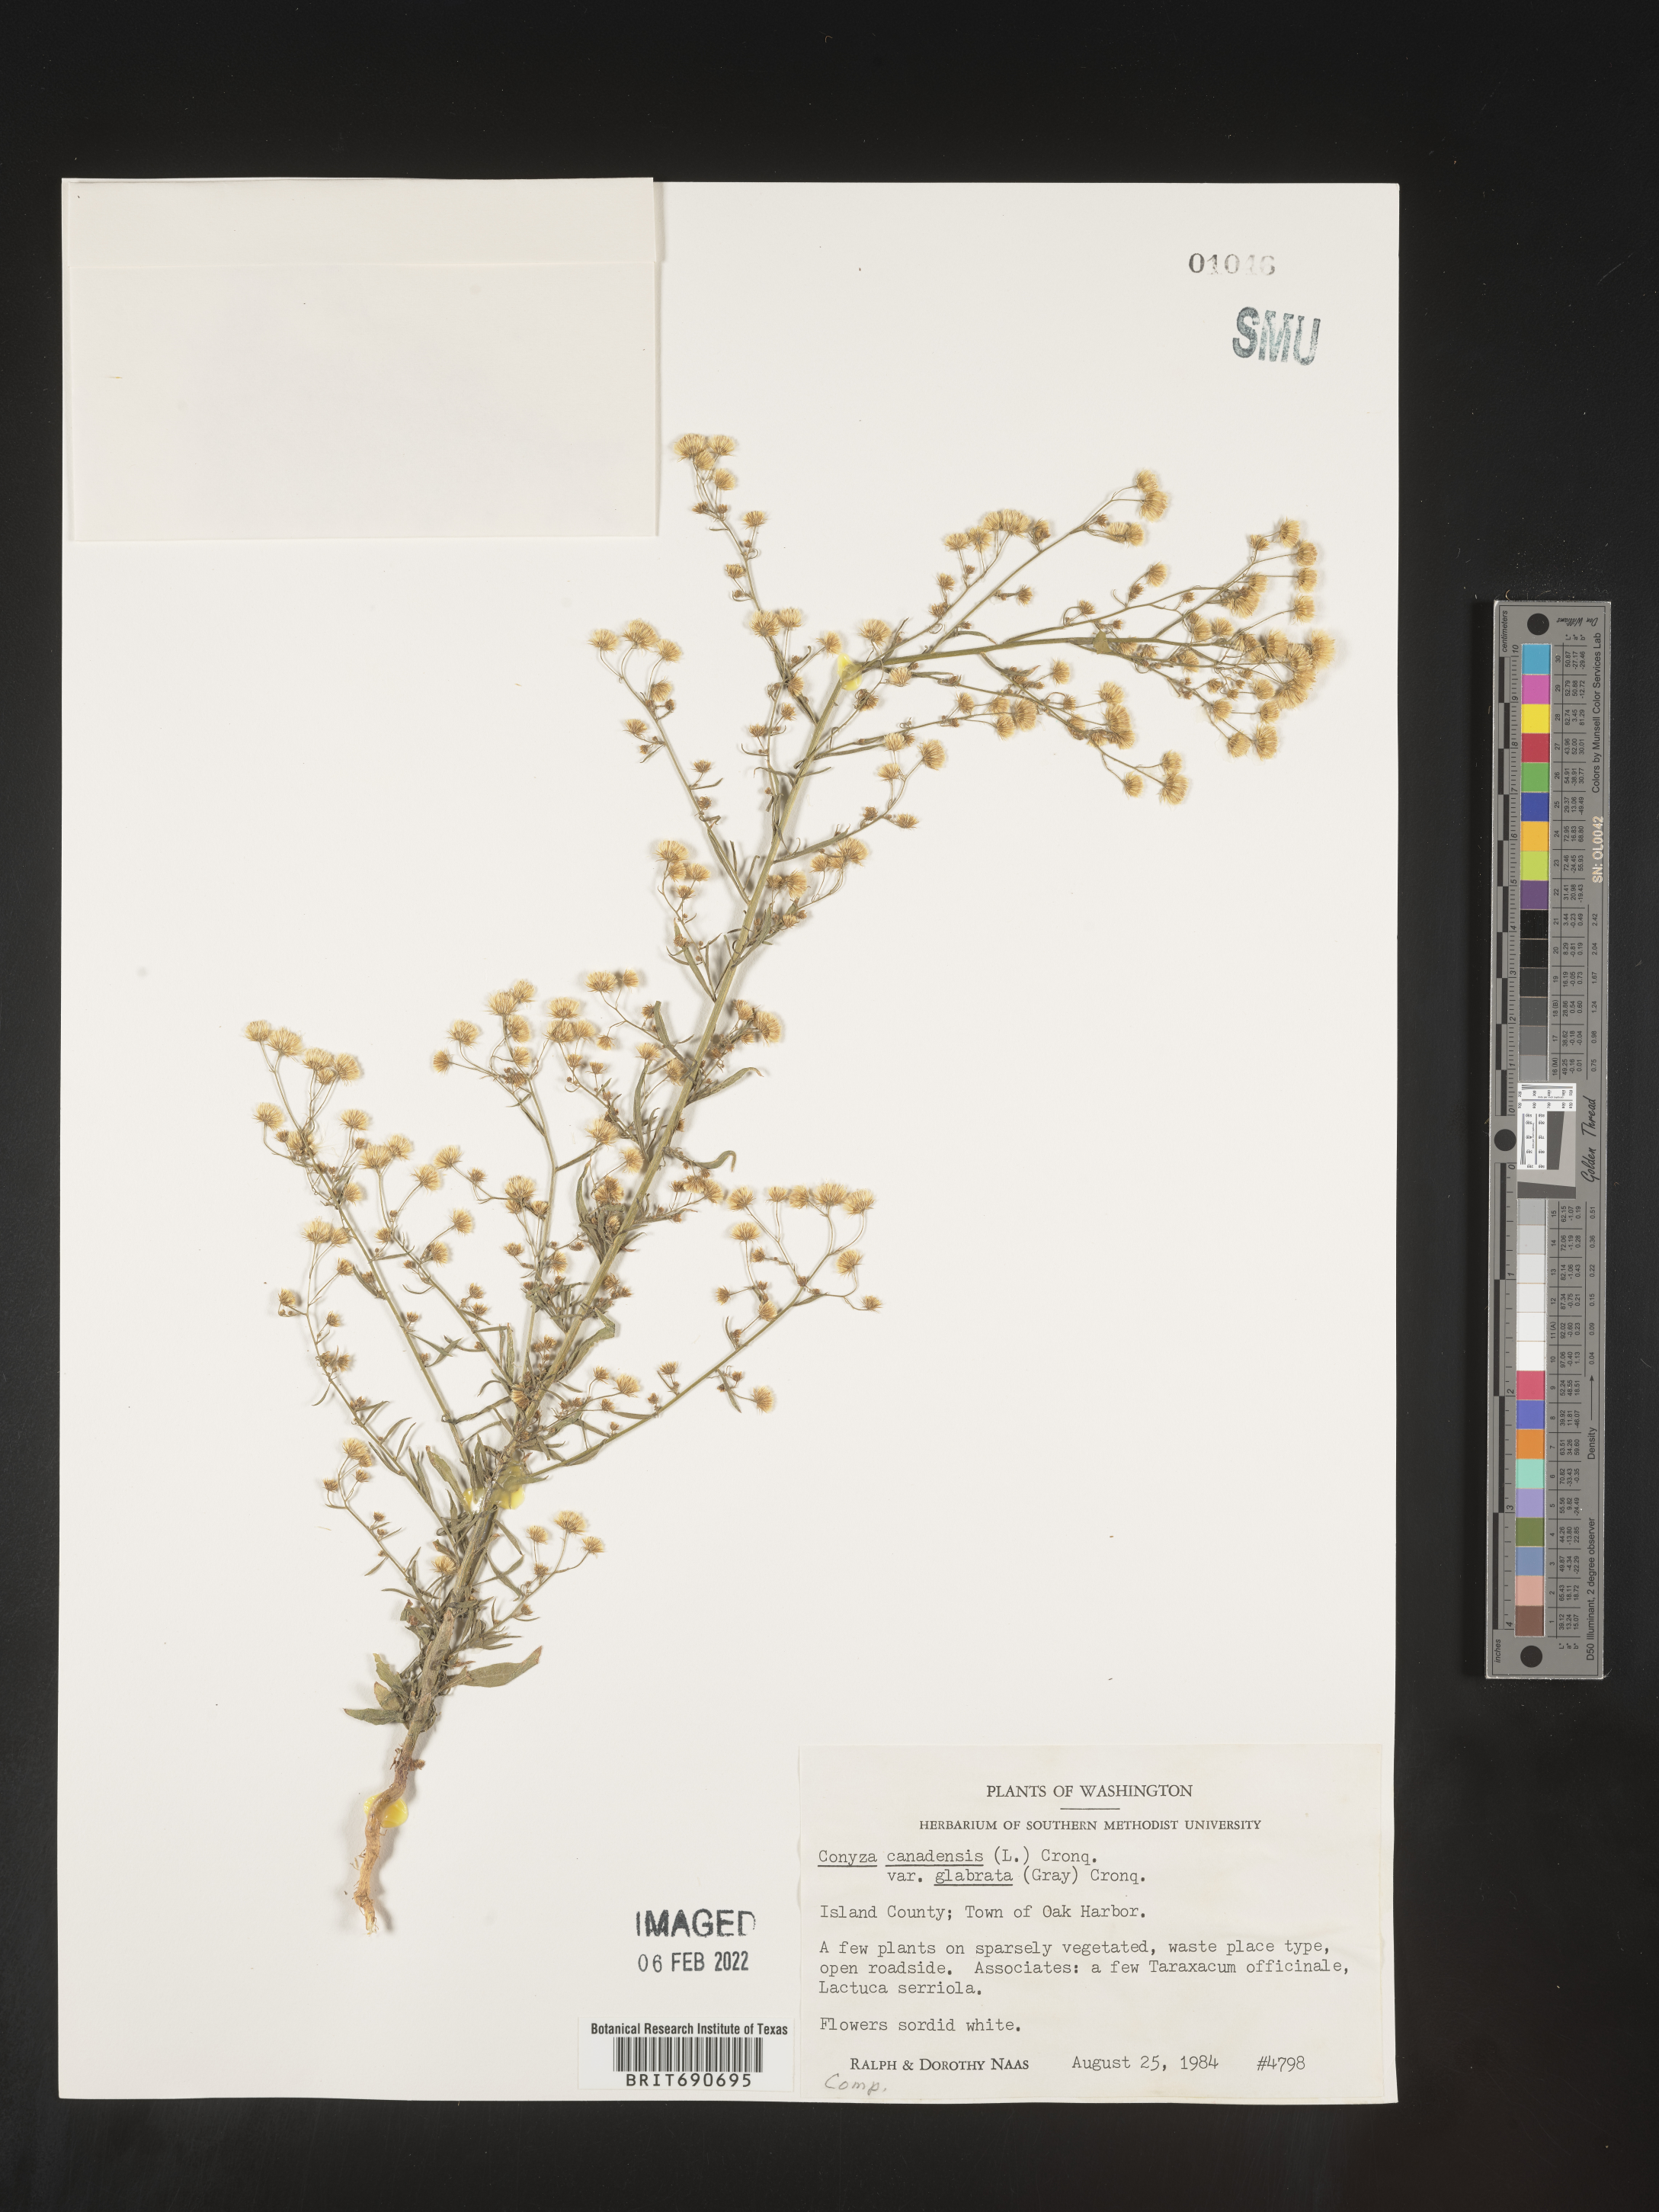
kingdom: Plantae
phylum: Tracheophyta
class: Magnoliopsida
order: Asterales
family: Asteraceae
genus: Erigeron
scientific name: Erigeron canadensis
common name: Canadian fleabane
